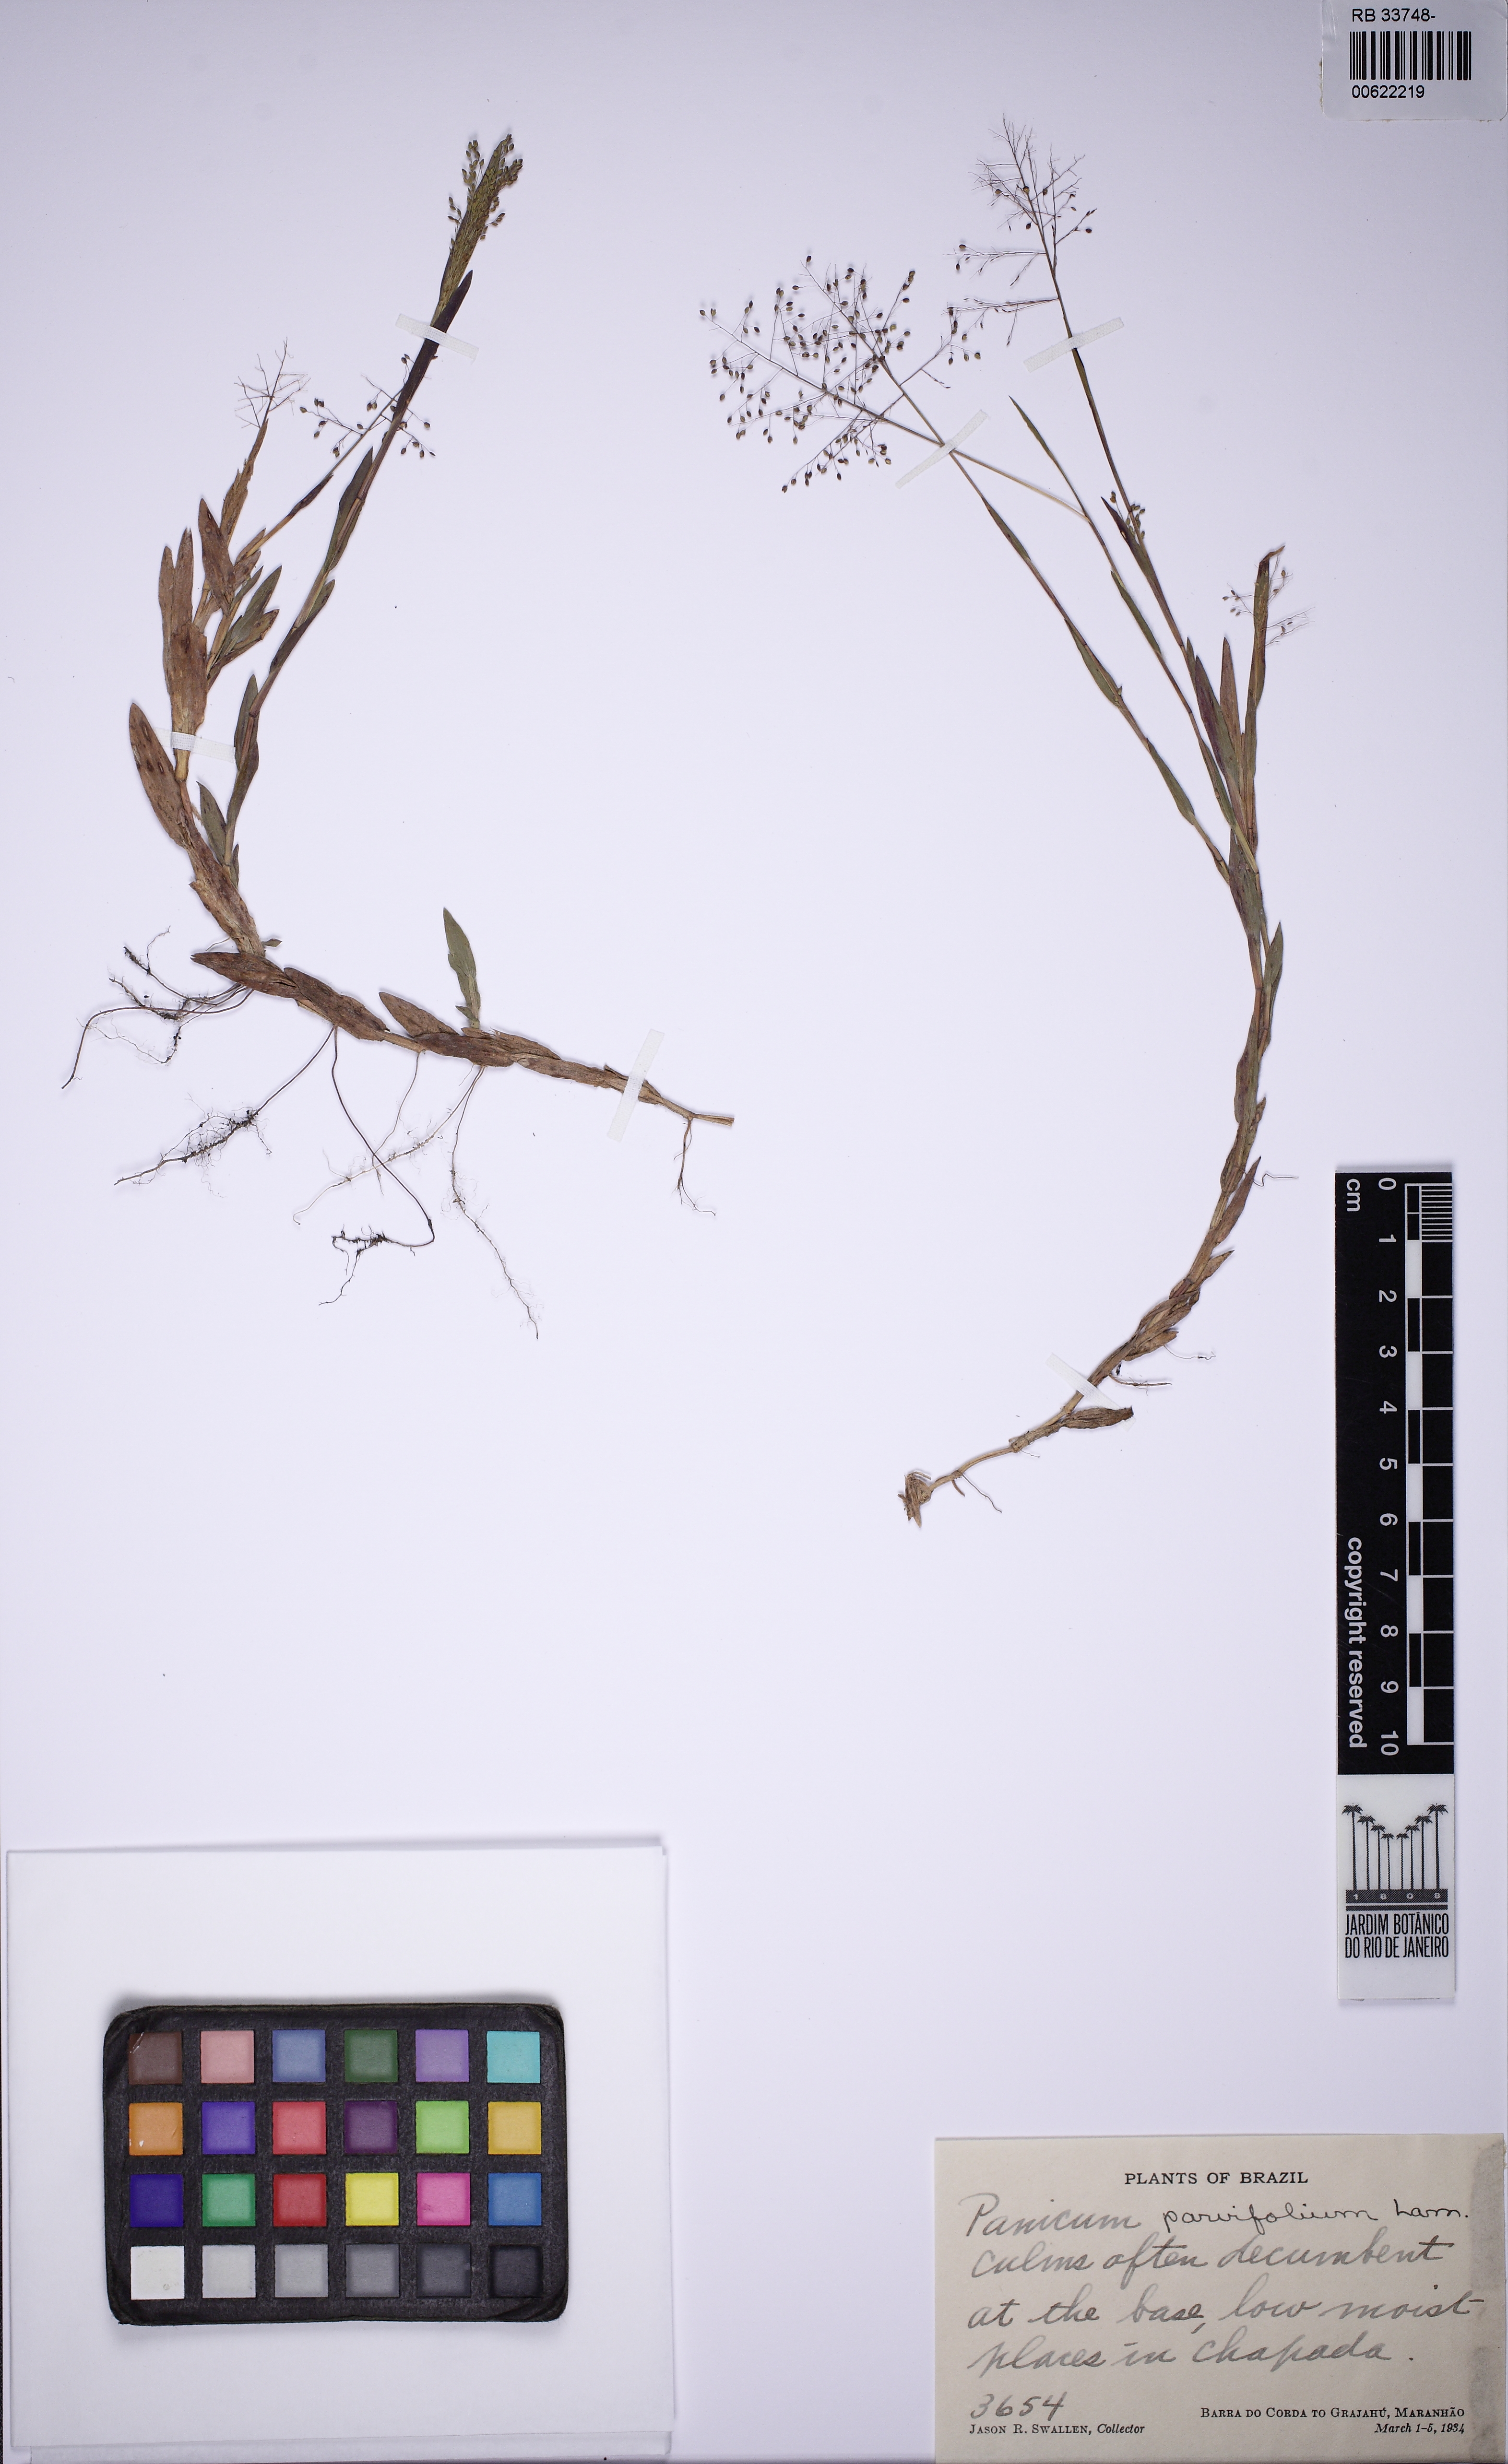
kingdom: Plantae
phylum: Tracheophyta
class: Liliopsida
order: Poales
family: Poaceae
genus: Trichanthecium
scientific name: Trichanthecium parvifolium
